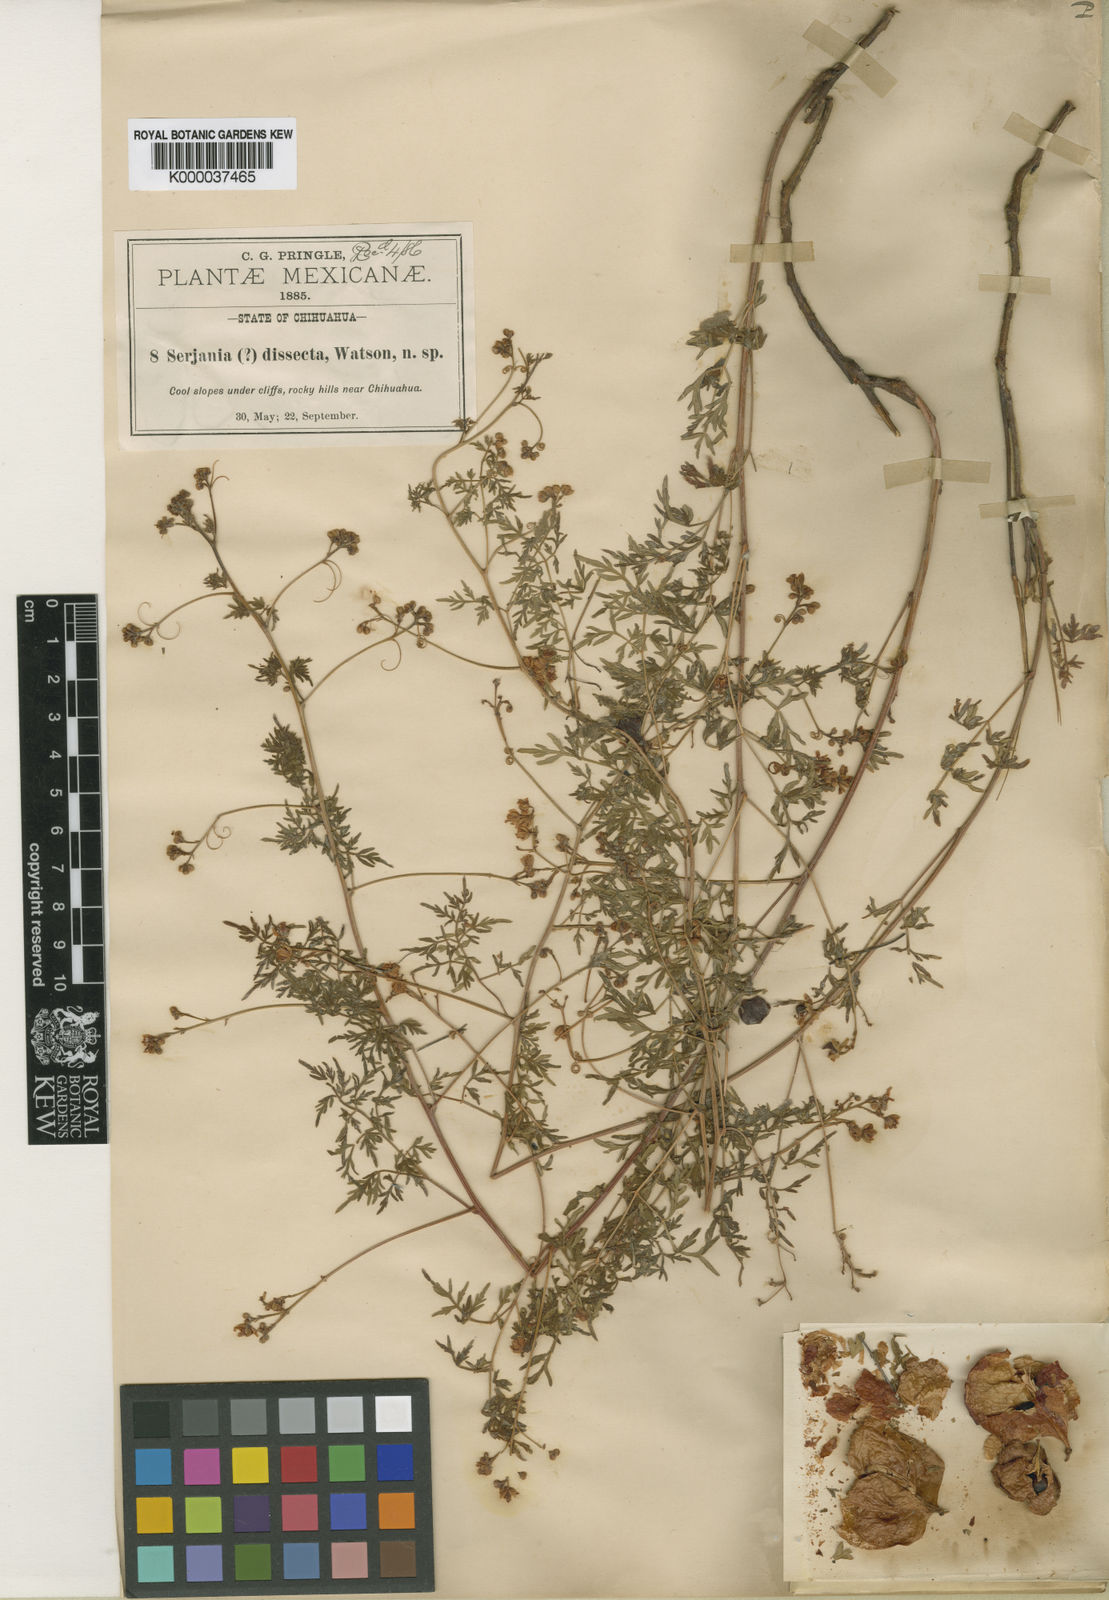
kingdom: Plantae
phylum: Tracheophyta
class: Magnoliopsida
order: Sapindales
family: Sapindaceae
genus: Serjania
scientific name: Serjania dissecta
